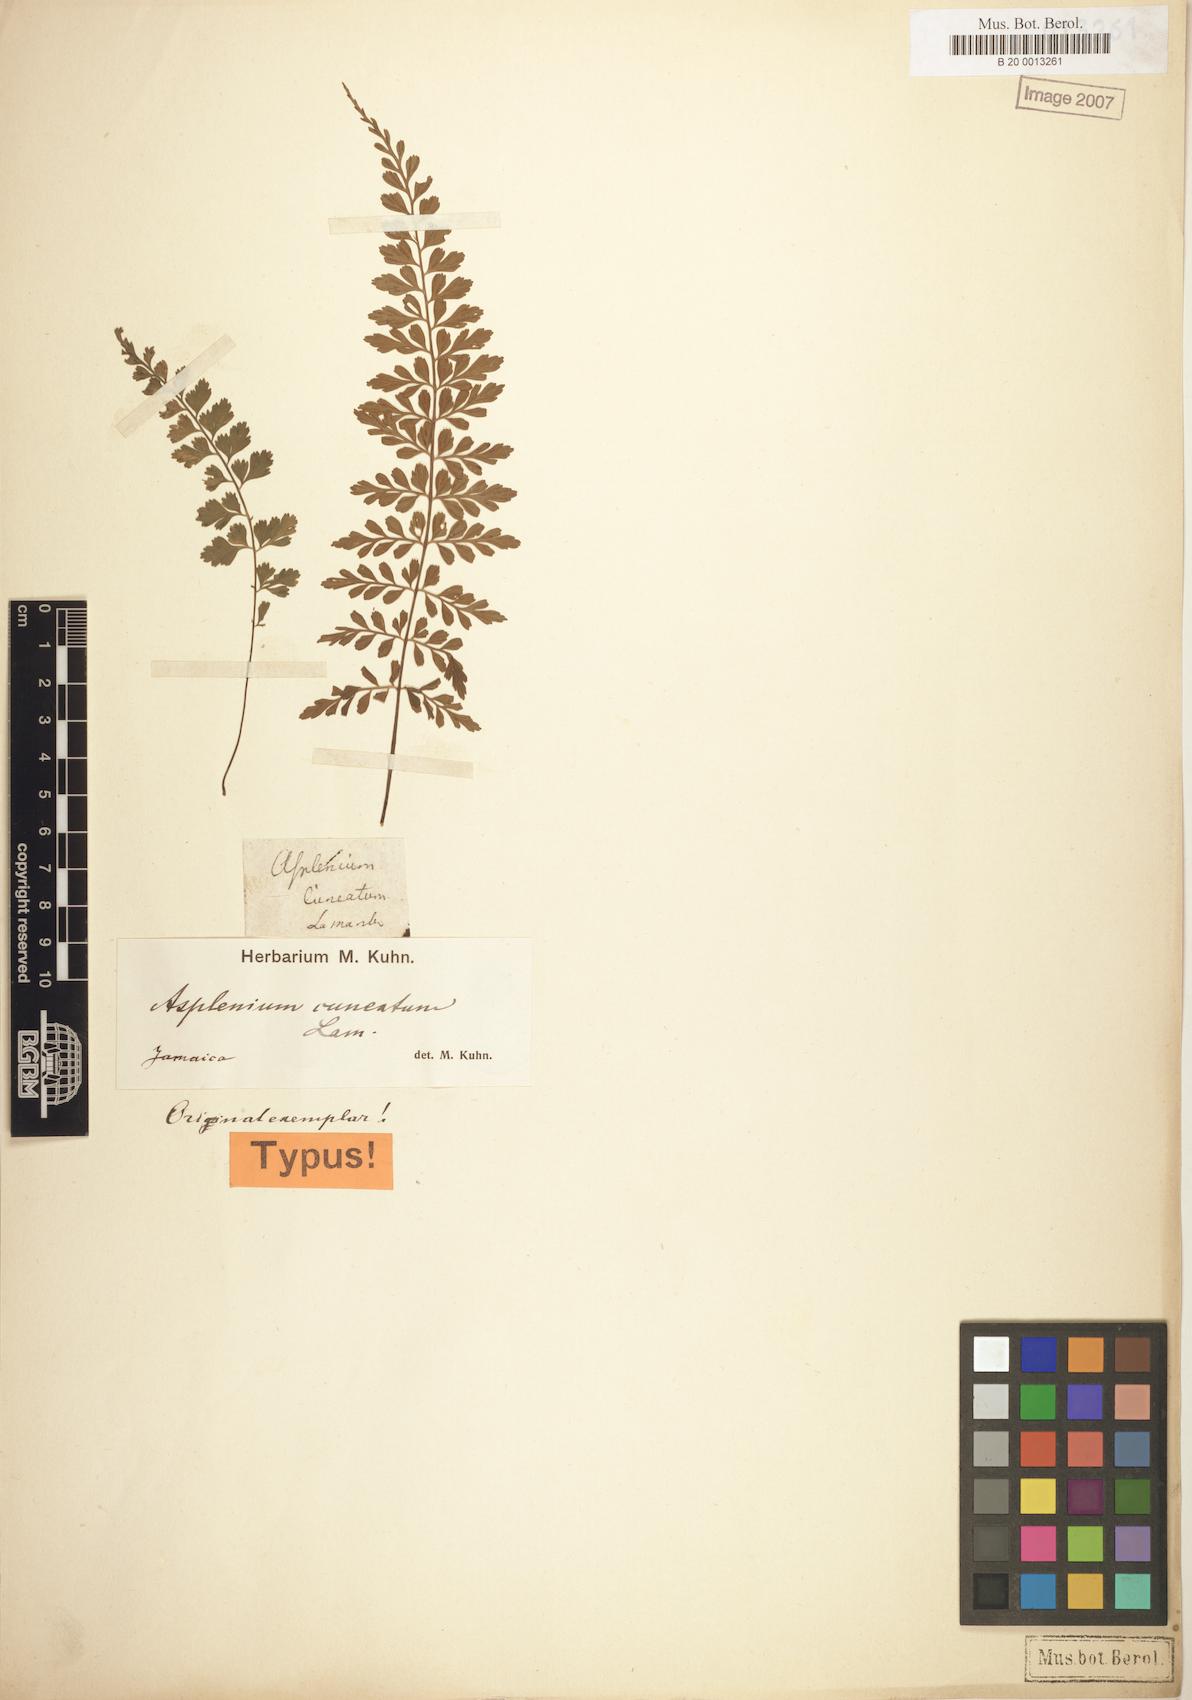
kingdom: Plantae
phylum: Tracheophyta
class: Polypodiopsida
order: Polypodiales
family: Aspleniaceae
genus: Asplenium
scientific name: Asplenium cuneatum
